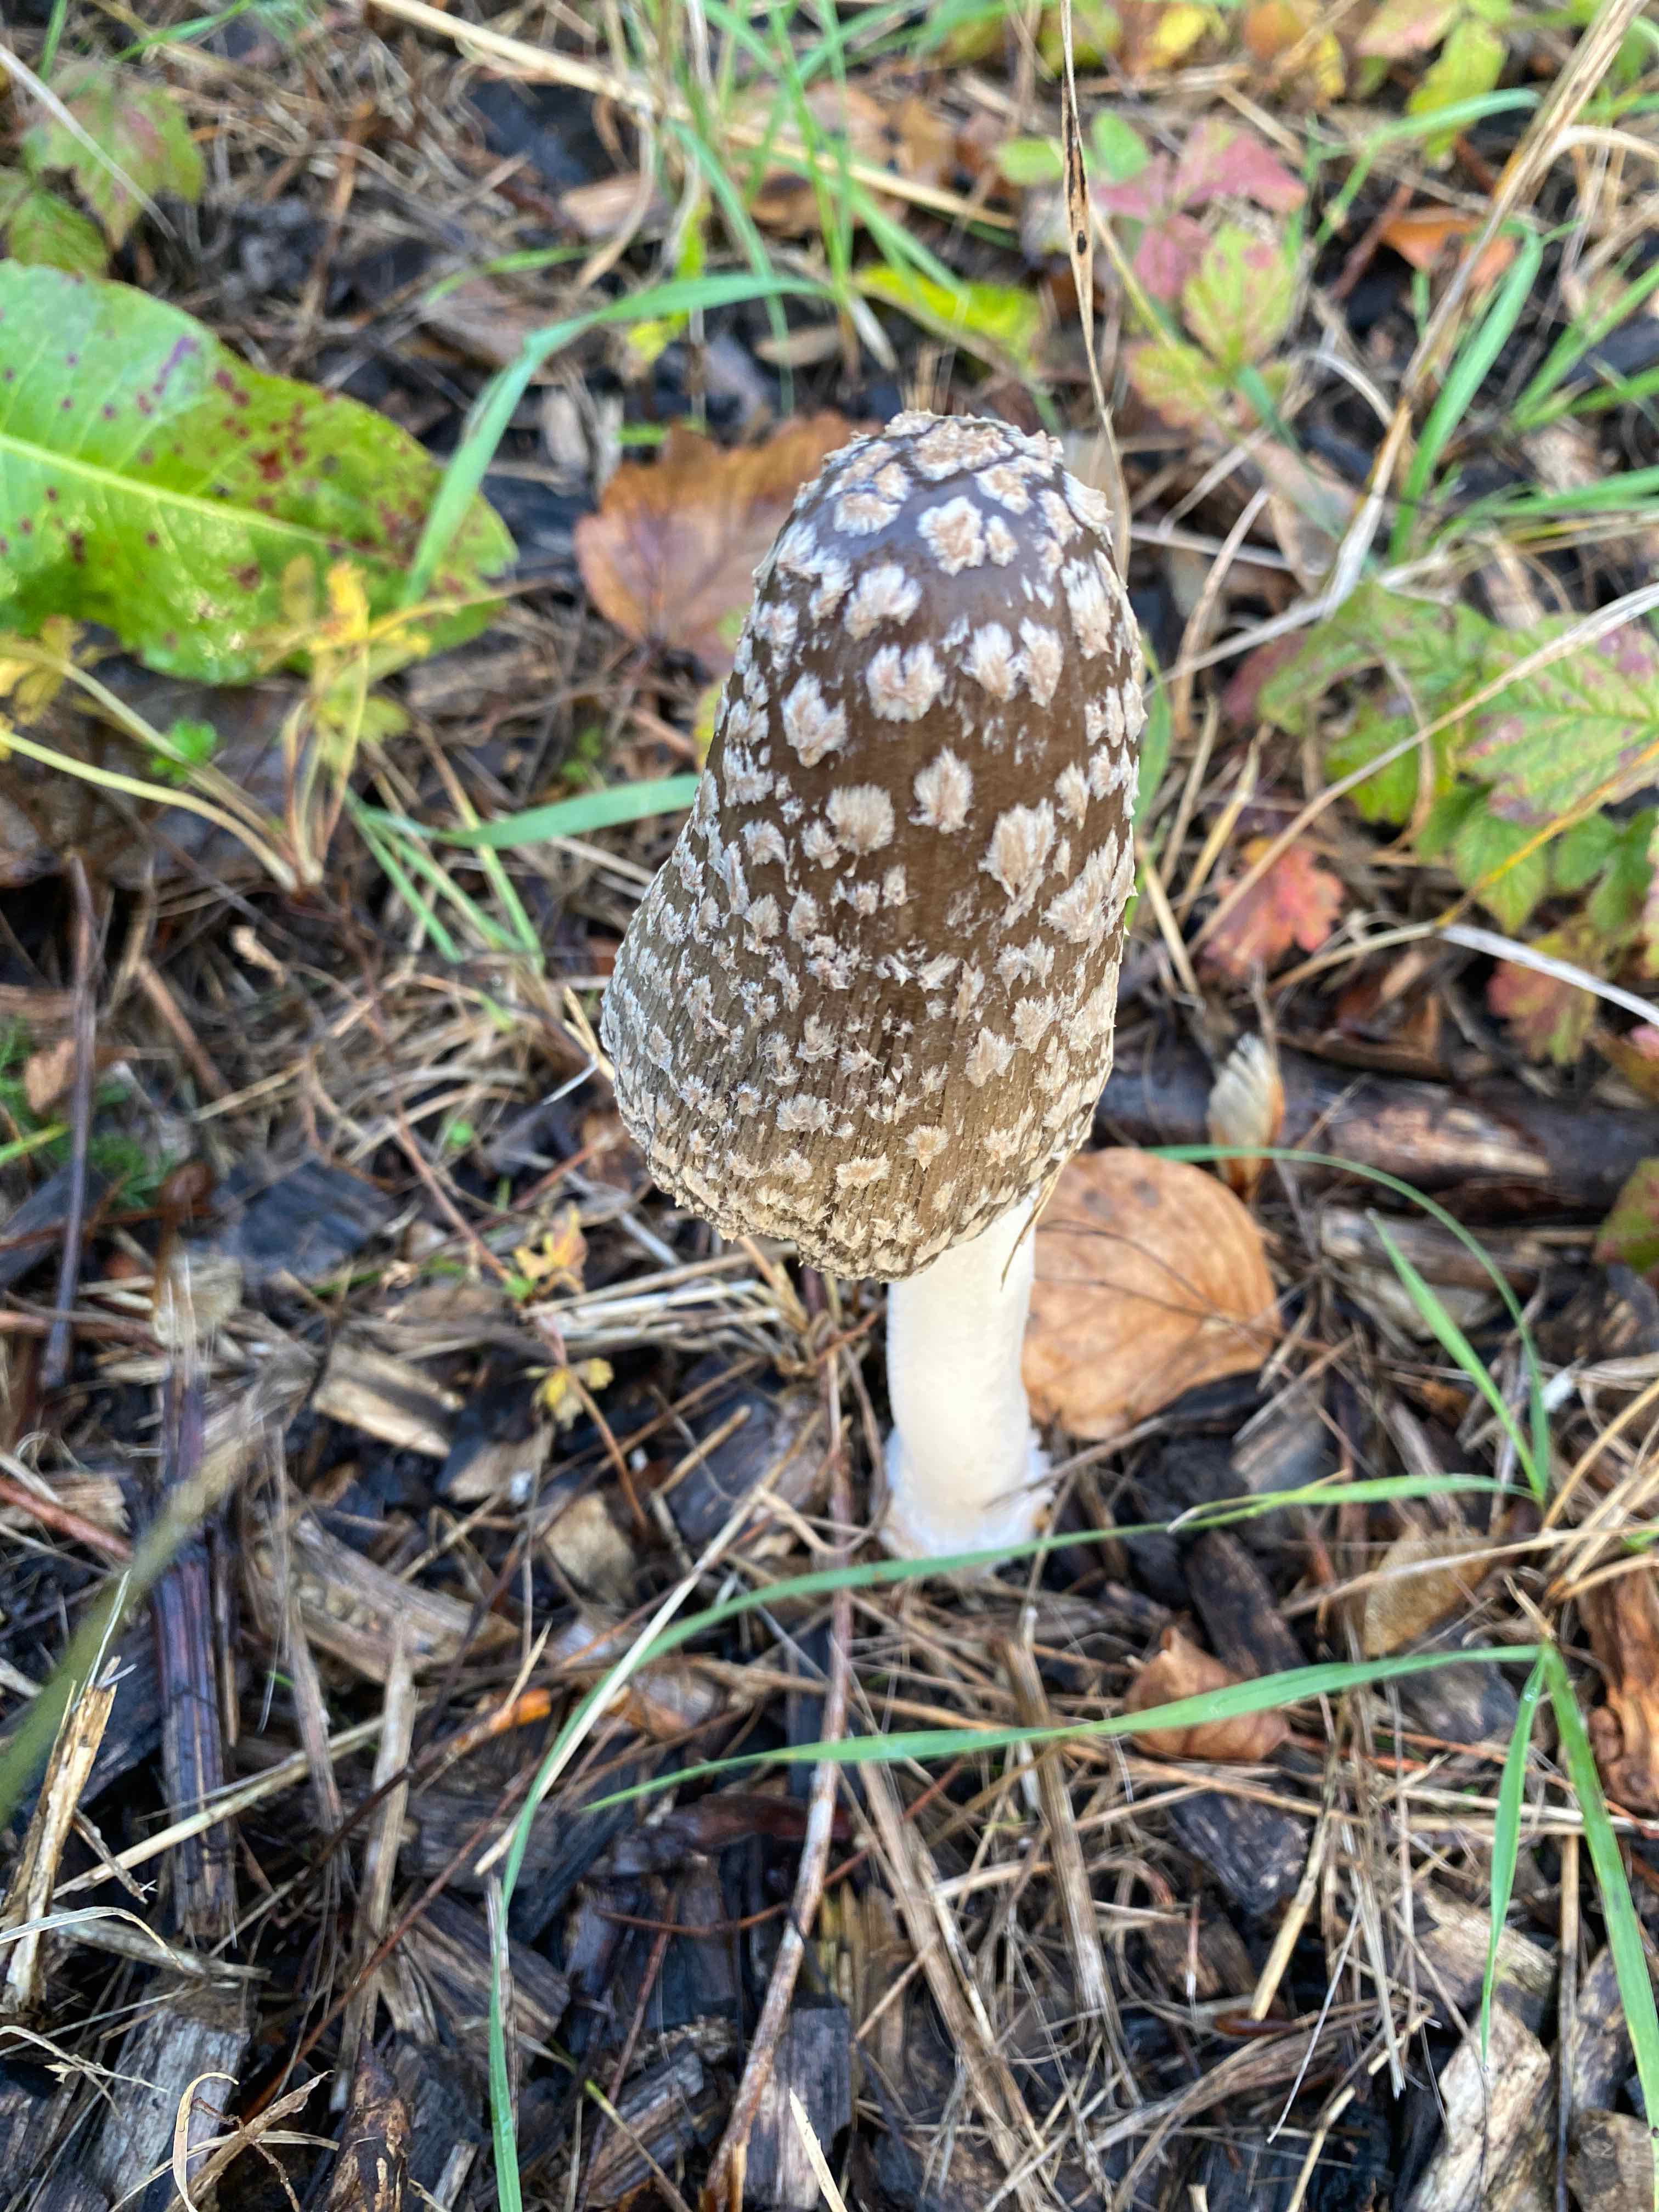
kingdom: Fungi
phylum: Basidiomycota
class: Agaricomycetes
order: Agaricales
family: Psathyrellaceae
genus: Coprinopsis
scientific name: Coprinopsis picacea
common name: skade-blækhat
